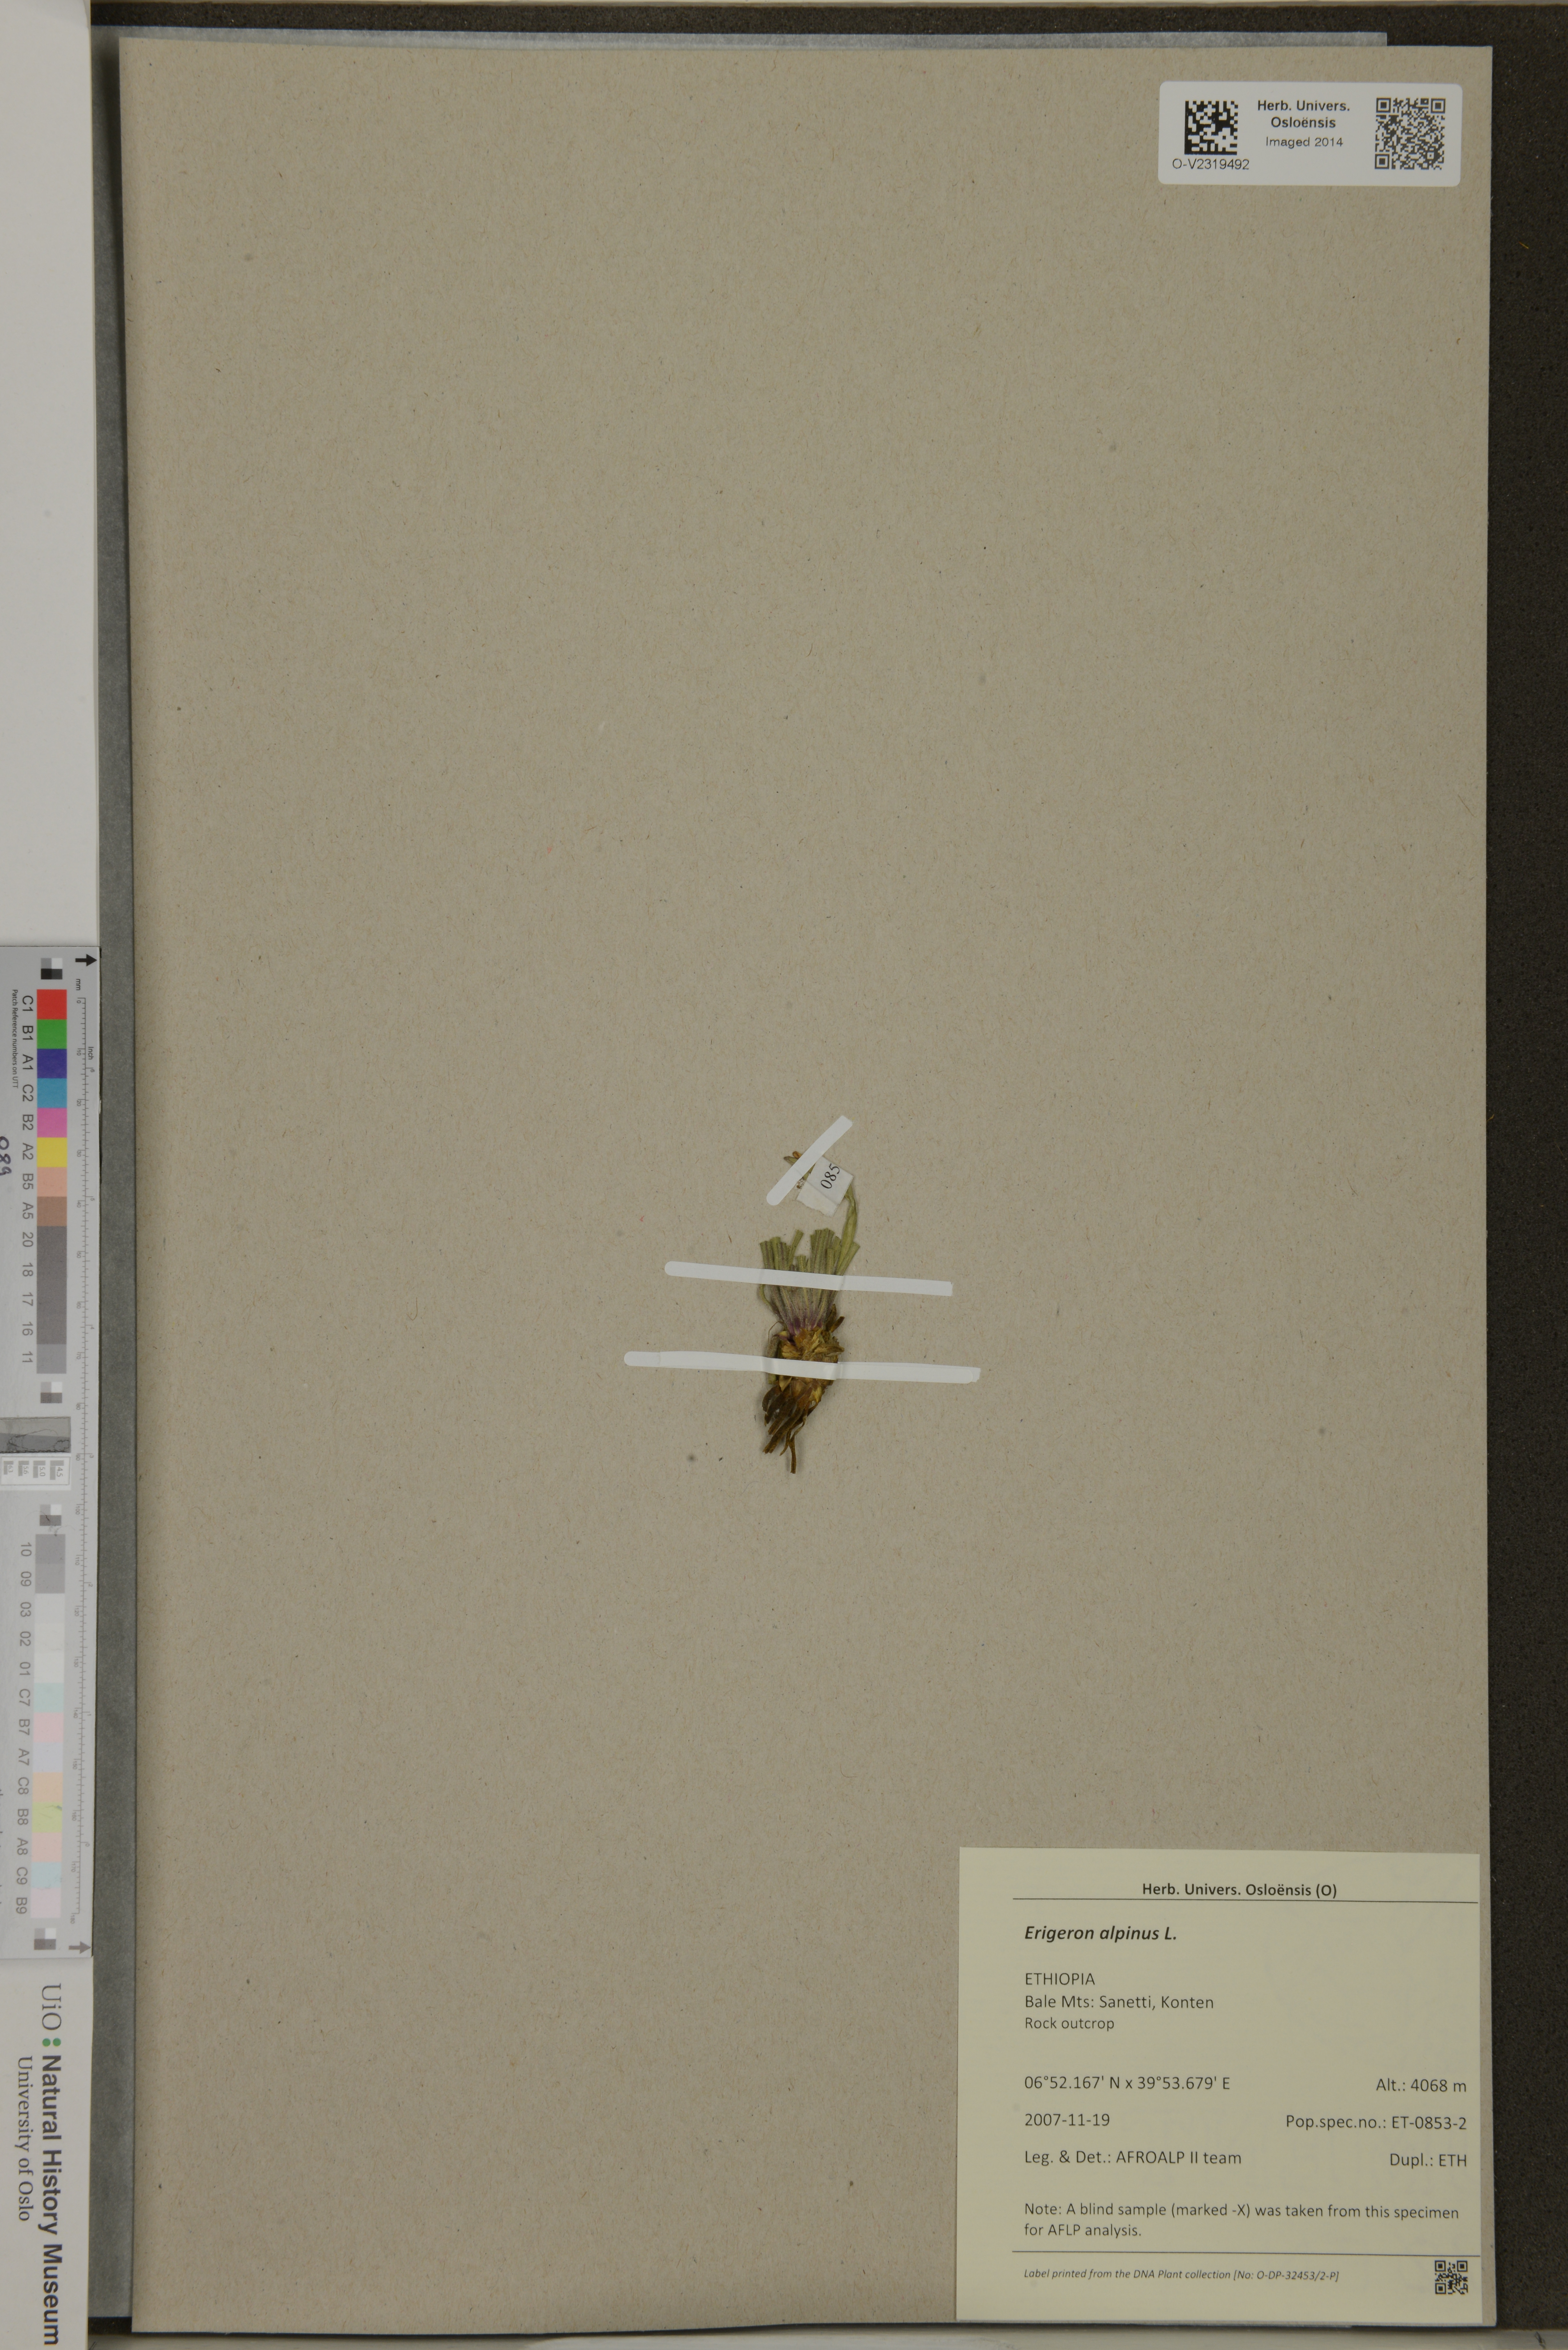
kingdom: Plantae
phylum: Tracheophyta
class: Magnoliopsida
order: Asterales
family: Asteraceae
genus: Erigeron
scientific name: Erigeron alpinus
